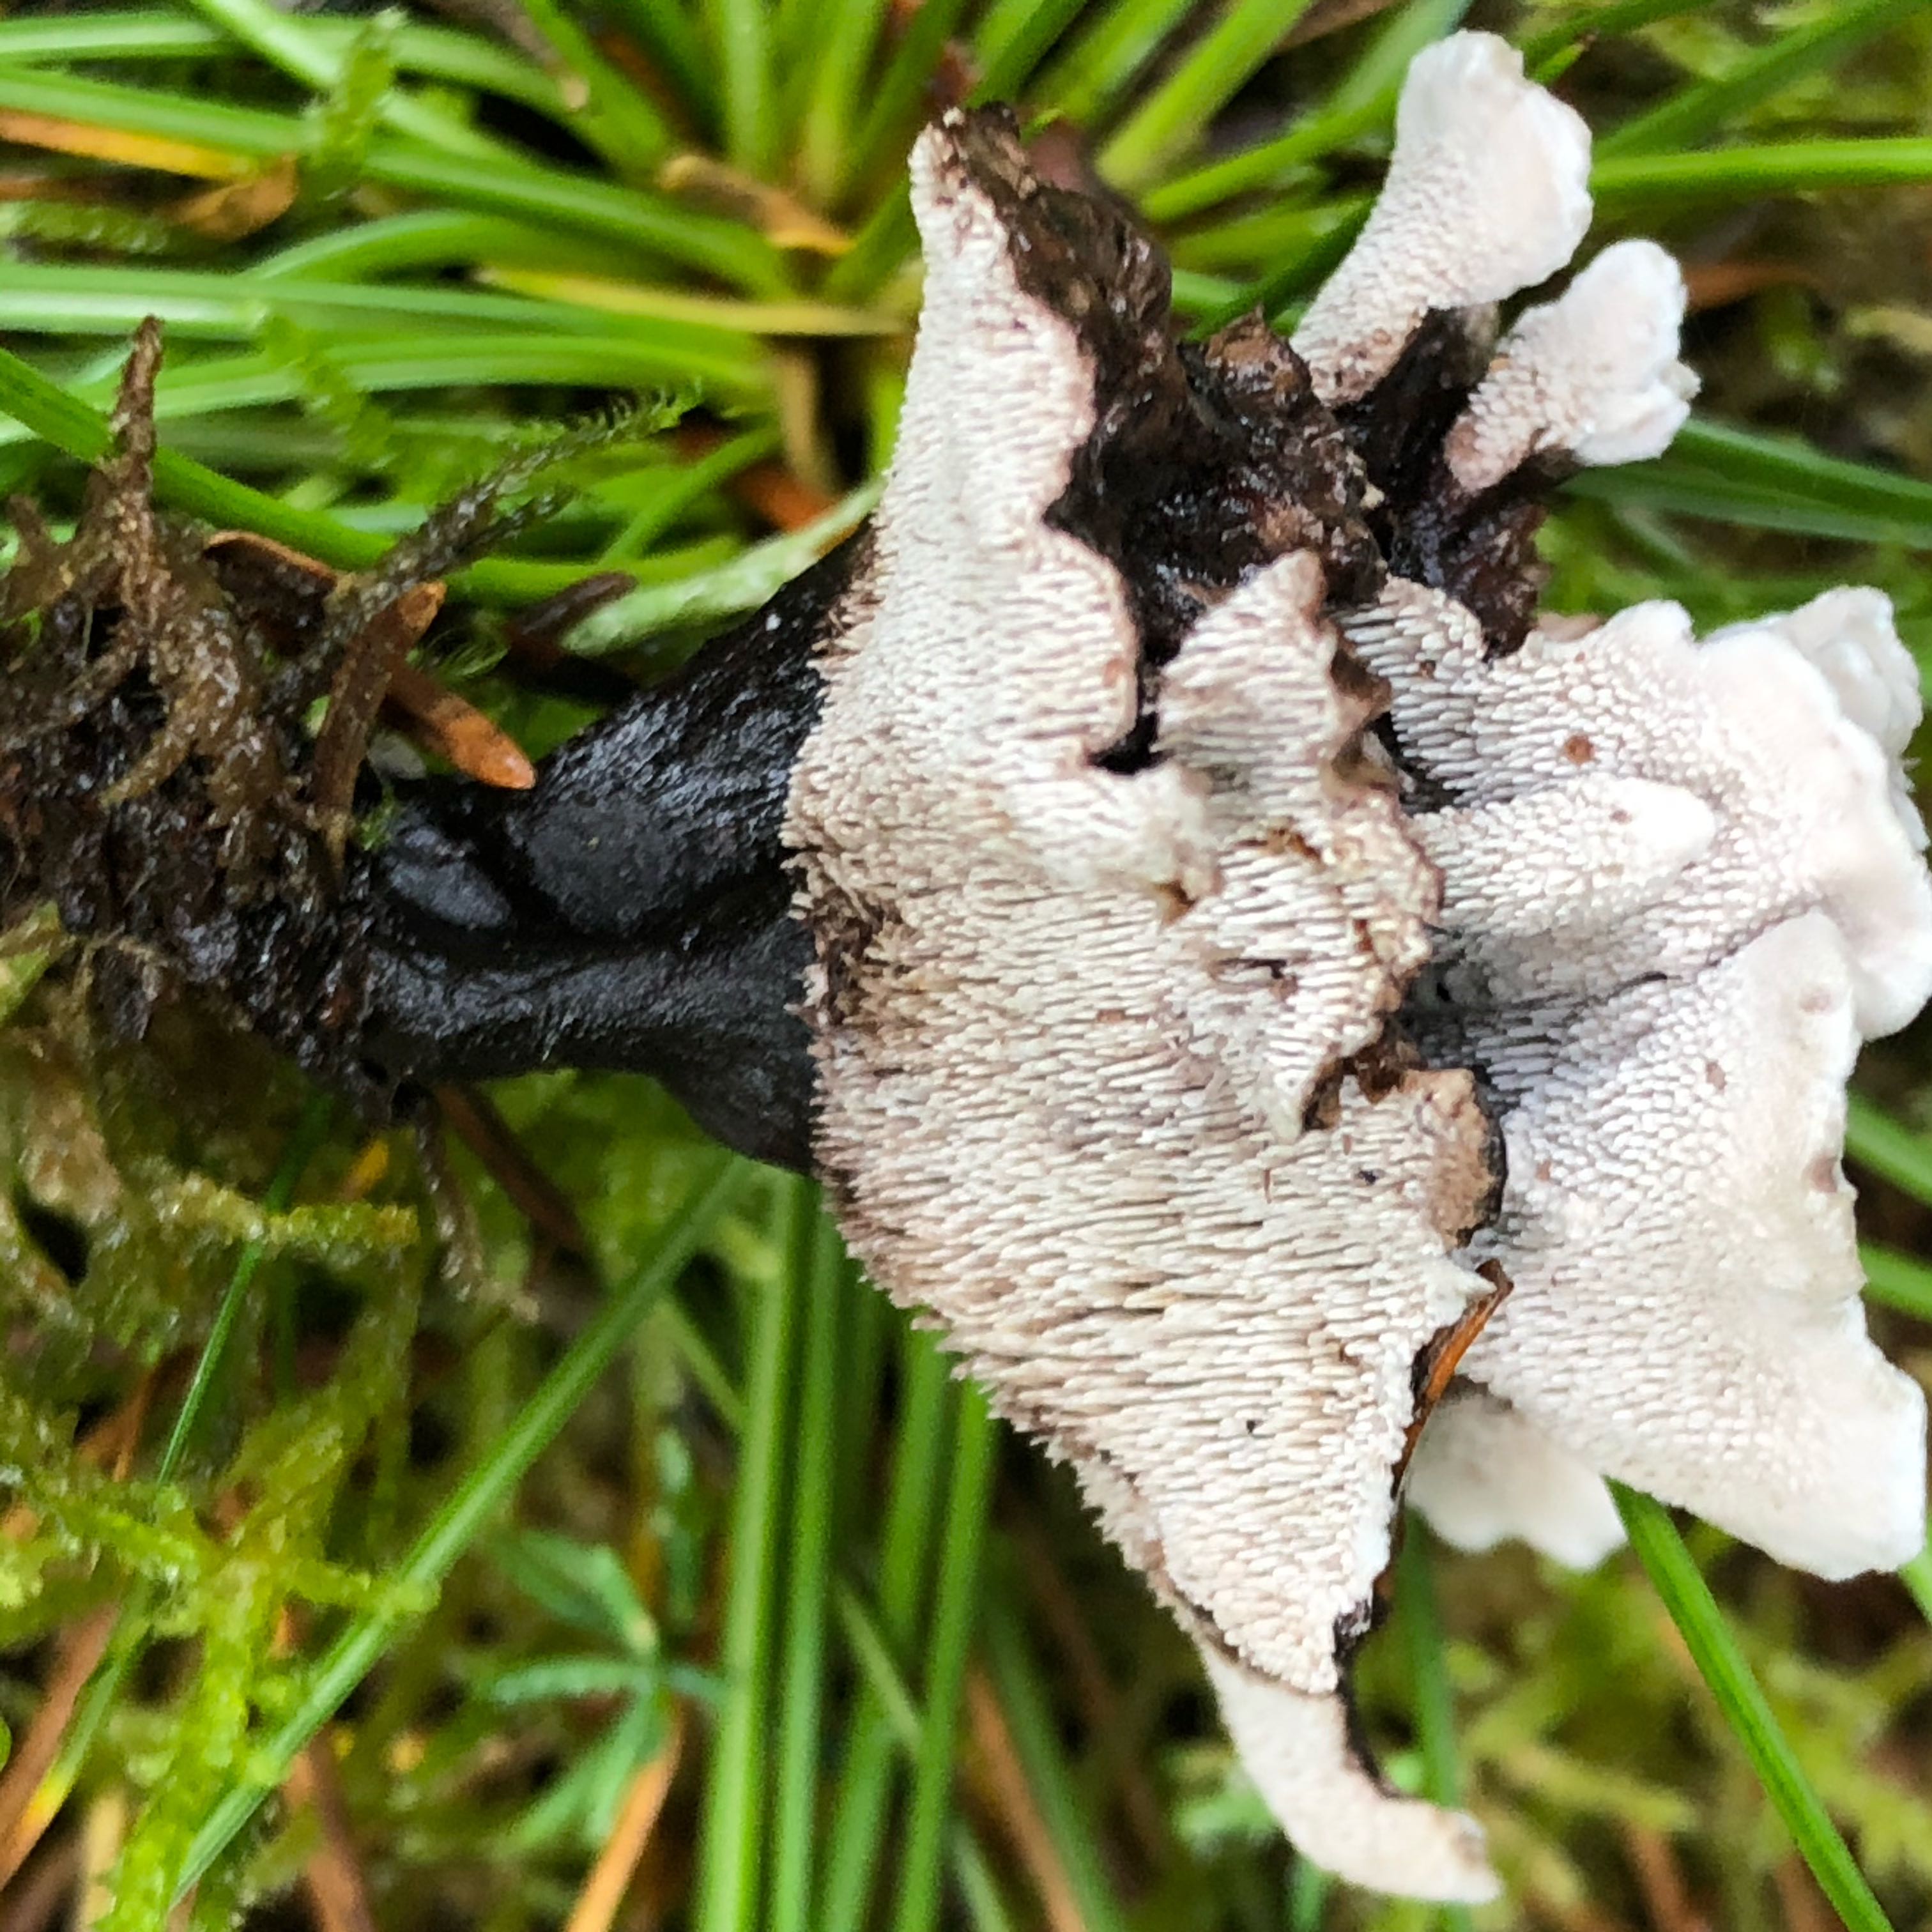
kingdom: Fungi
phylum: Basidiomycota
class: Agaricomycetes
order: Thelephorales
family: Thelephoraceae
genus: Phellodon
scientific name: Phellodon tomentosus
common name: vellugtende duftpigsvamp
